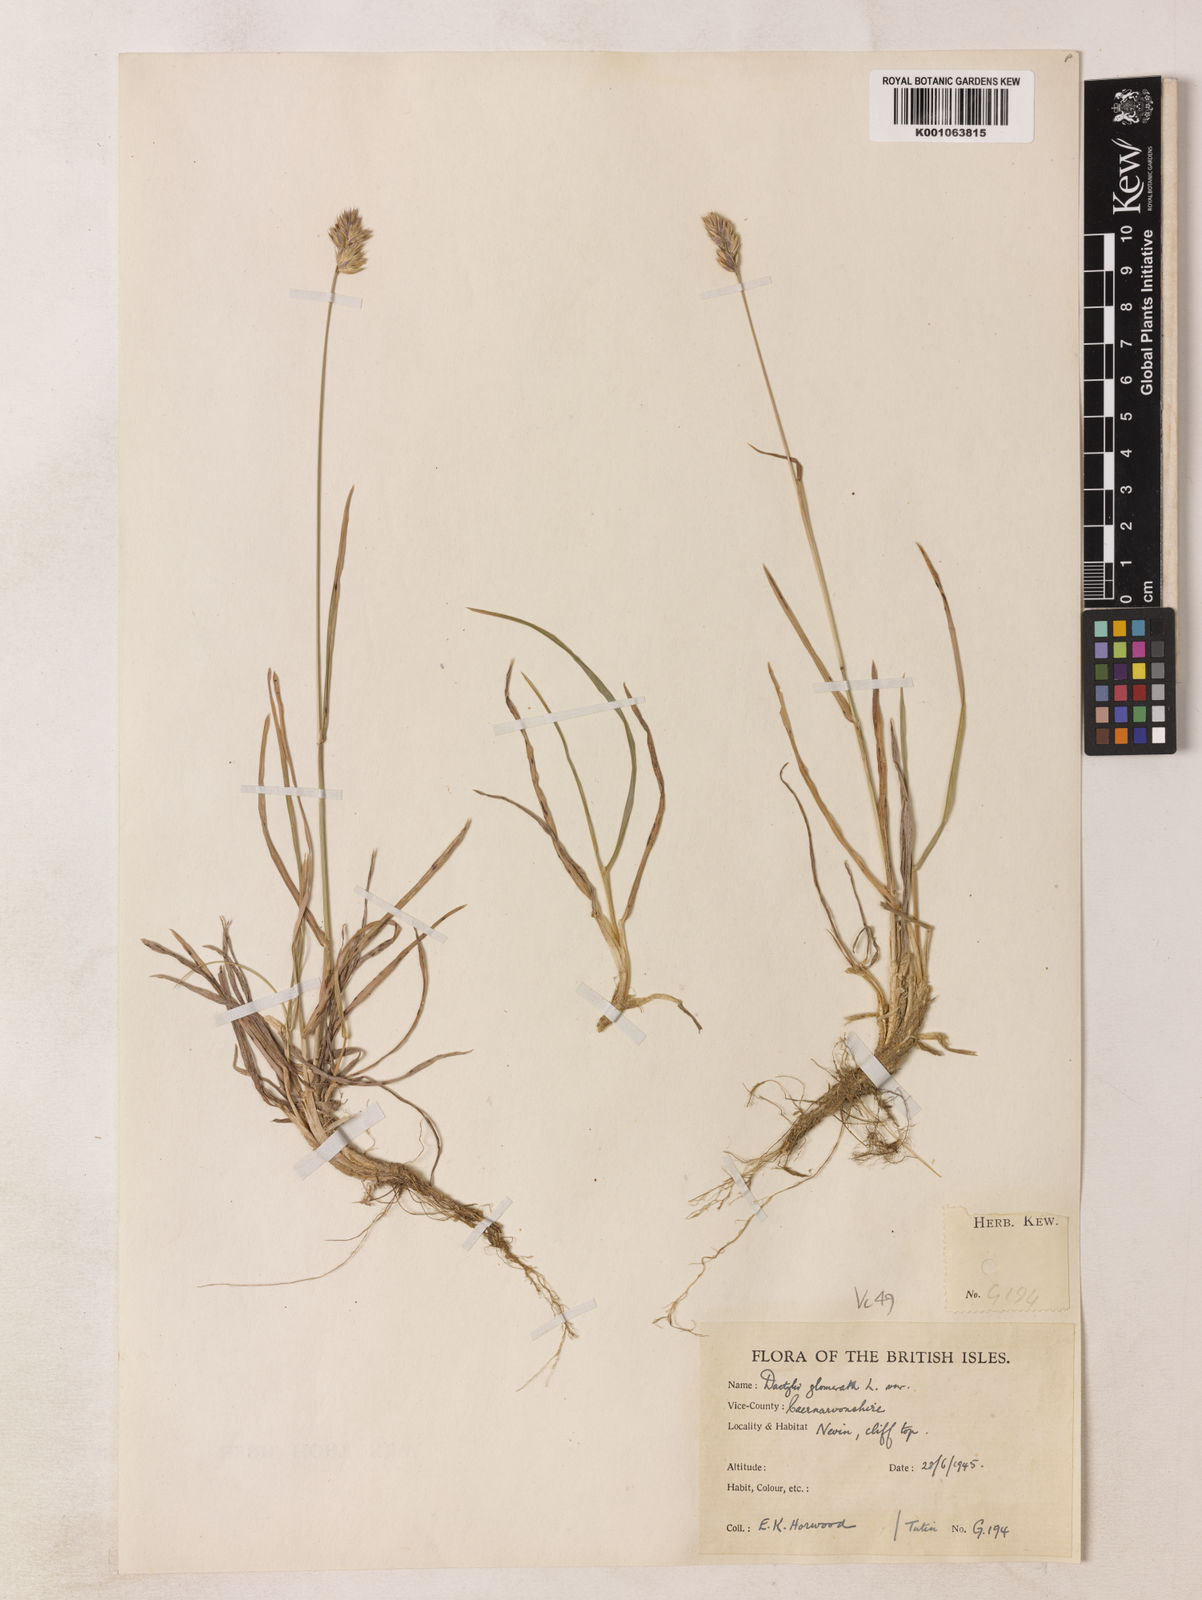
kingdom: Plantae
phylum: Tracheophyta
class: Liliopsida
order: Poales
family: Poaceae
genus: Dactylis
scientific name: Dactylis glomerata
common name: Orchardgrass
